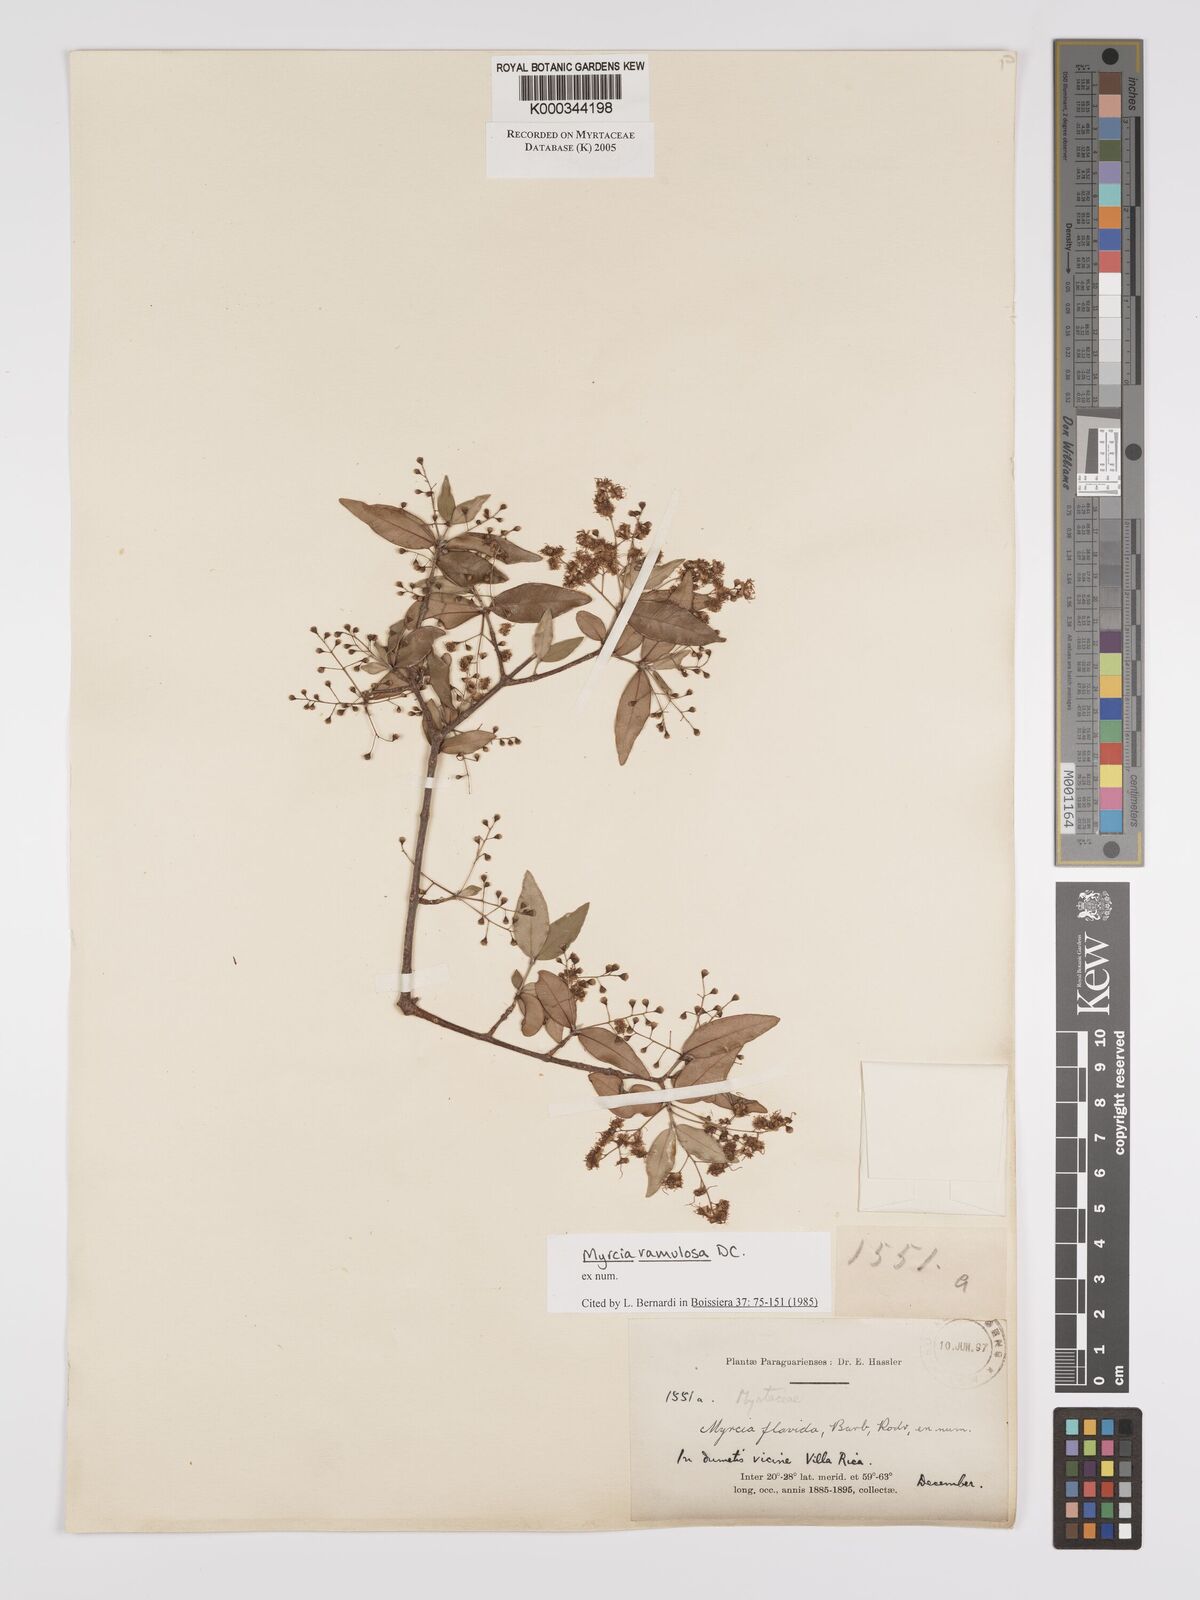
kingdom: Plantae
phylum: Tracheophyta
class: Magnoliopsida
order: Myrtales
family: Myrtaceae
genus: Myrcia
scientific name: Myrcia selloi
